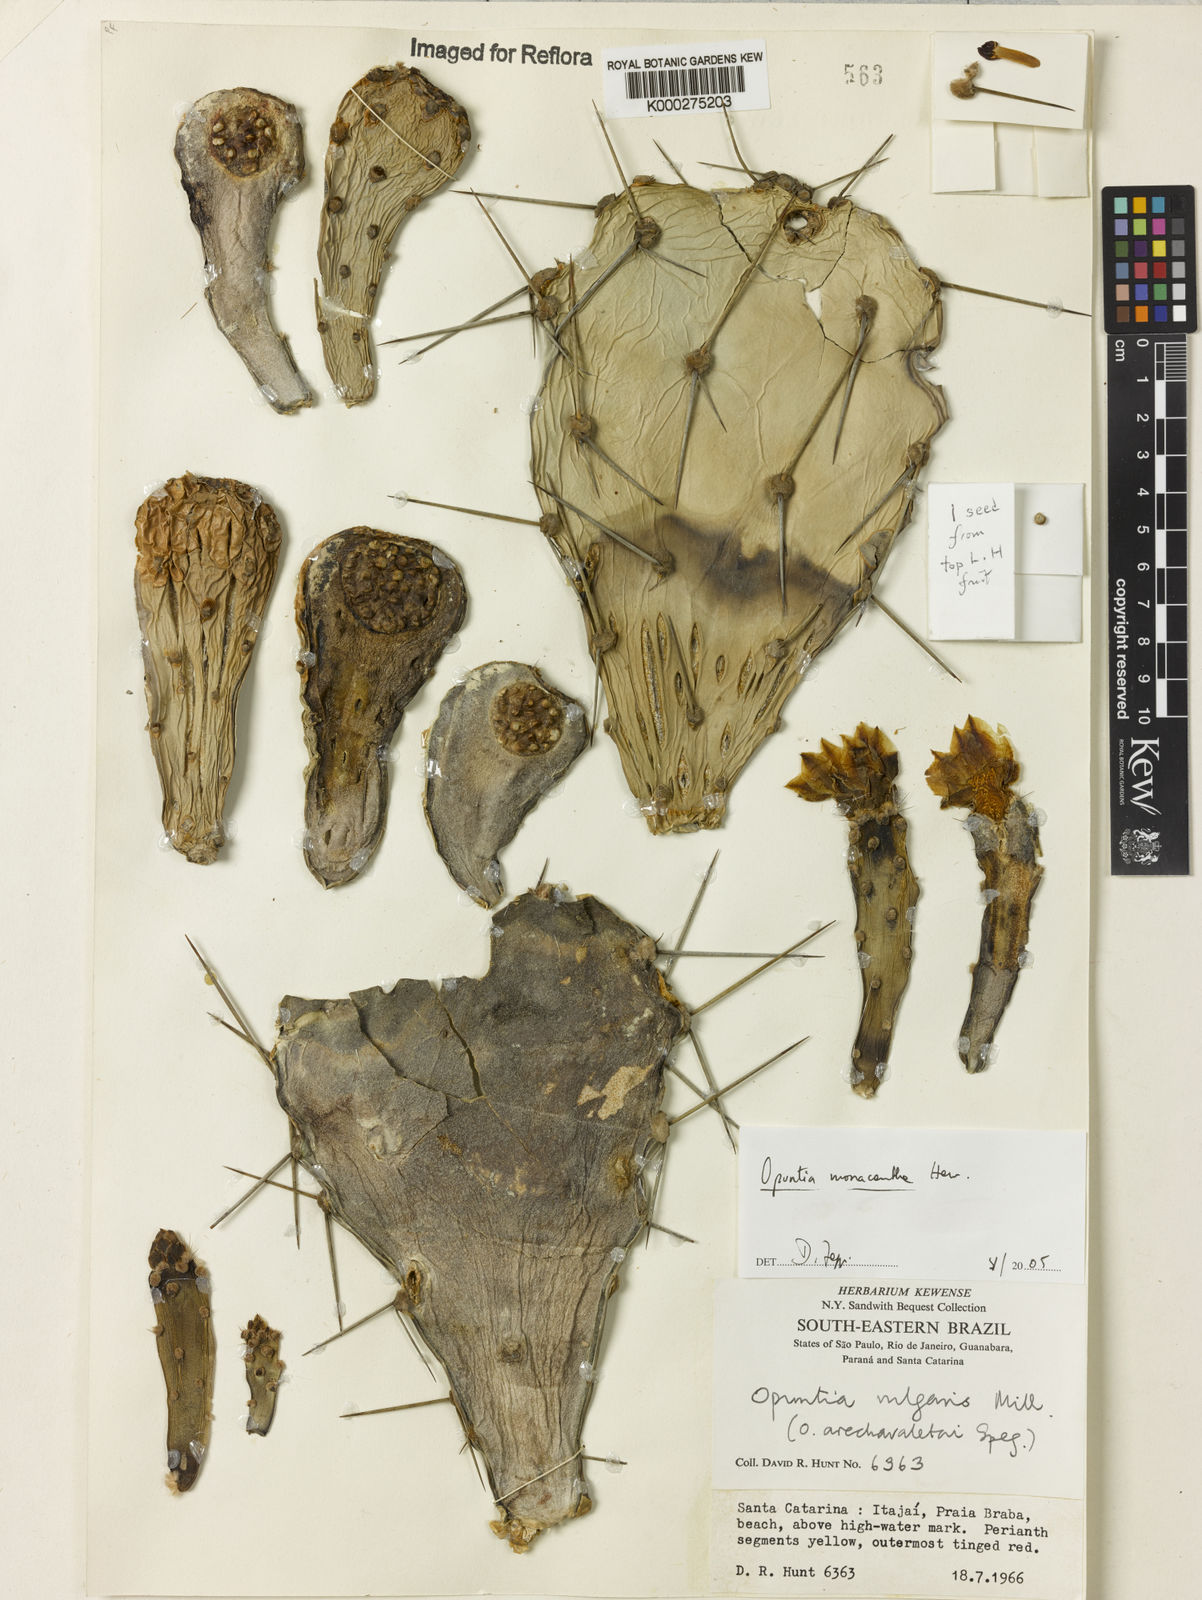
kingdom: Plantae
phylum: Tracheophyta
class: Magnoliopsida
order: Caryophyllales
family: Cactaceae
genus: Opuntia
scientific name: Opuntia monacantha
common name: Common pricklypear
